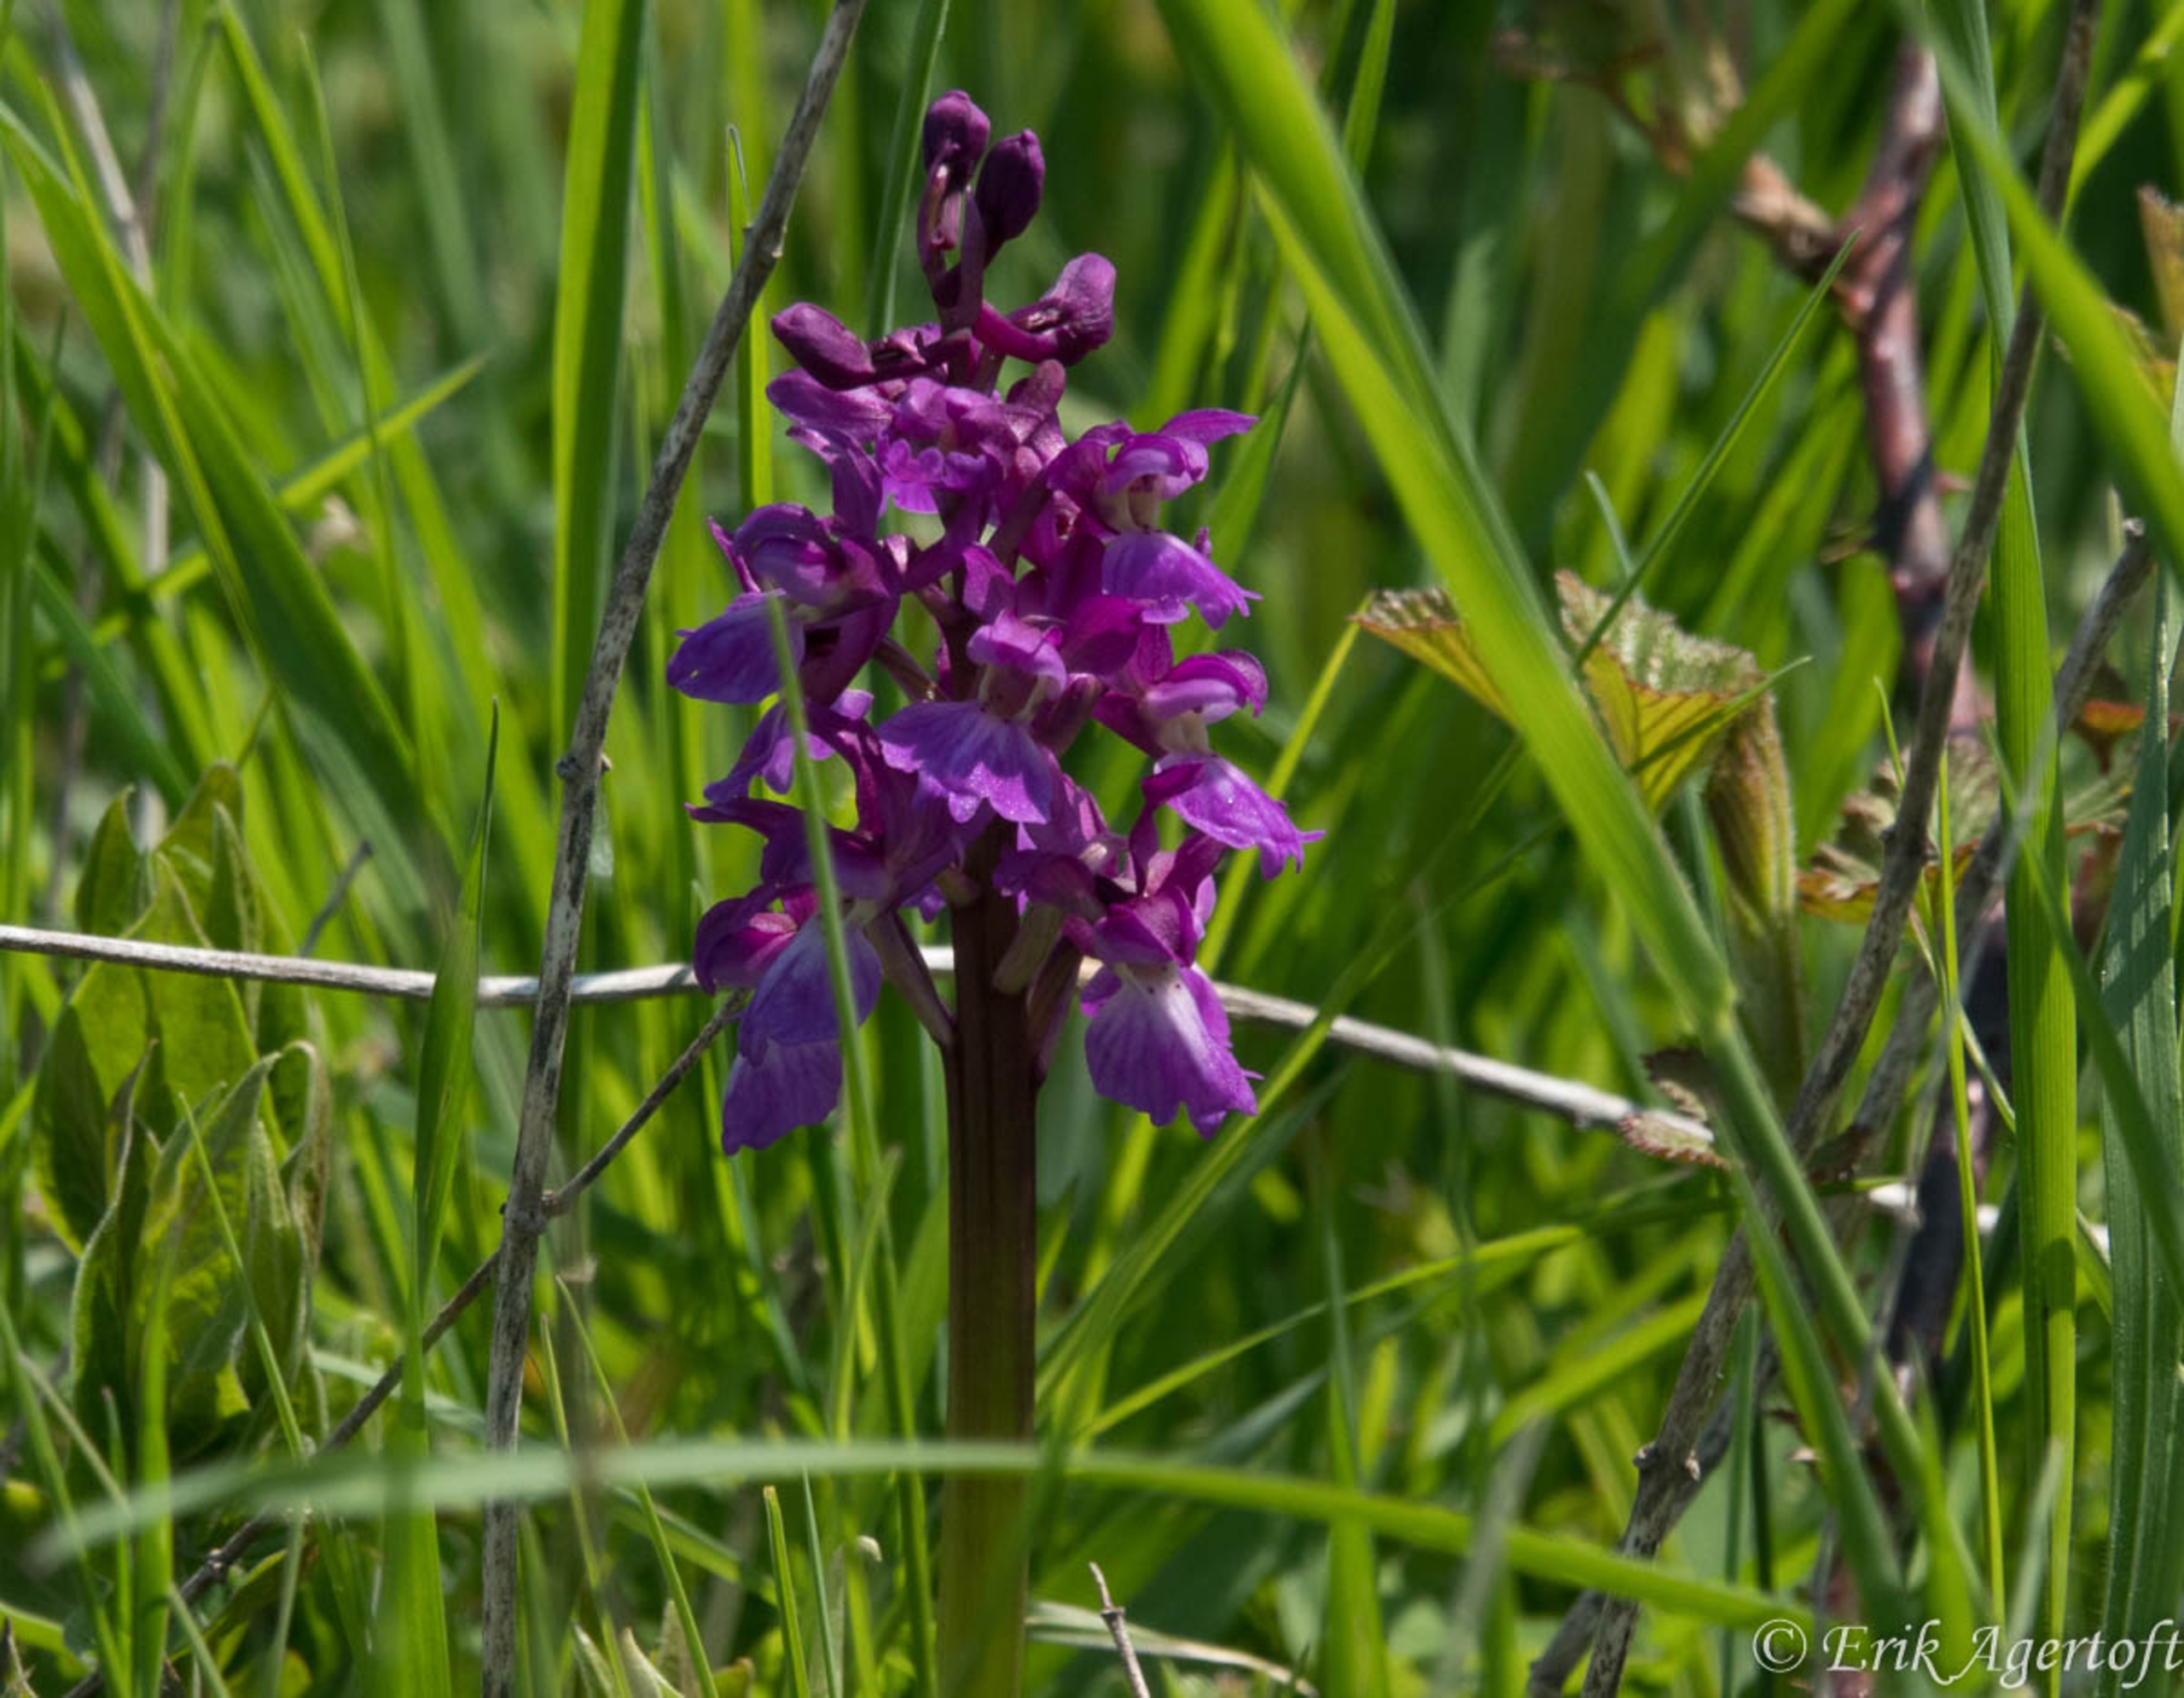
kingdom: Plantae
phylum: Tracheophyta
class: Liliopsida
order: Asparagales
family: Orchidaceae
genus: Orchis
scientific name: Orchis mascula
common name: Tyndakset gøgeurt
